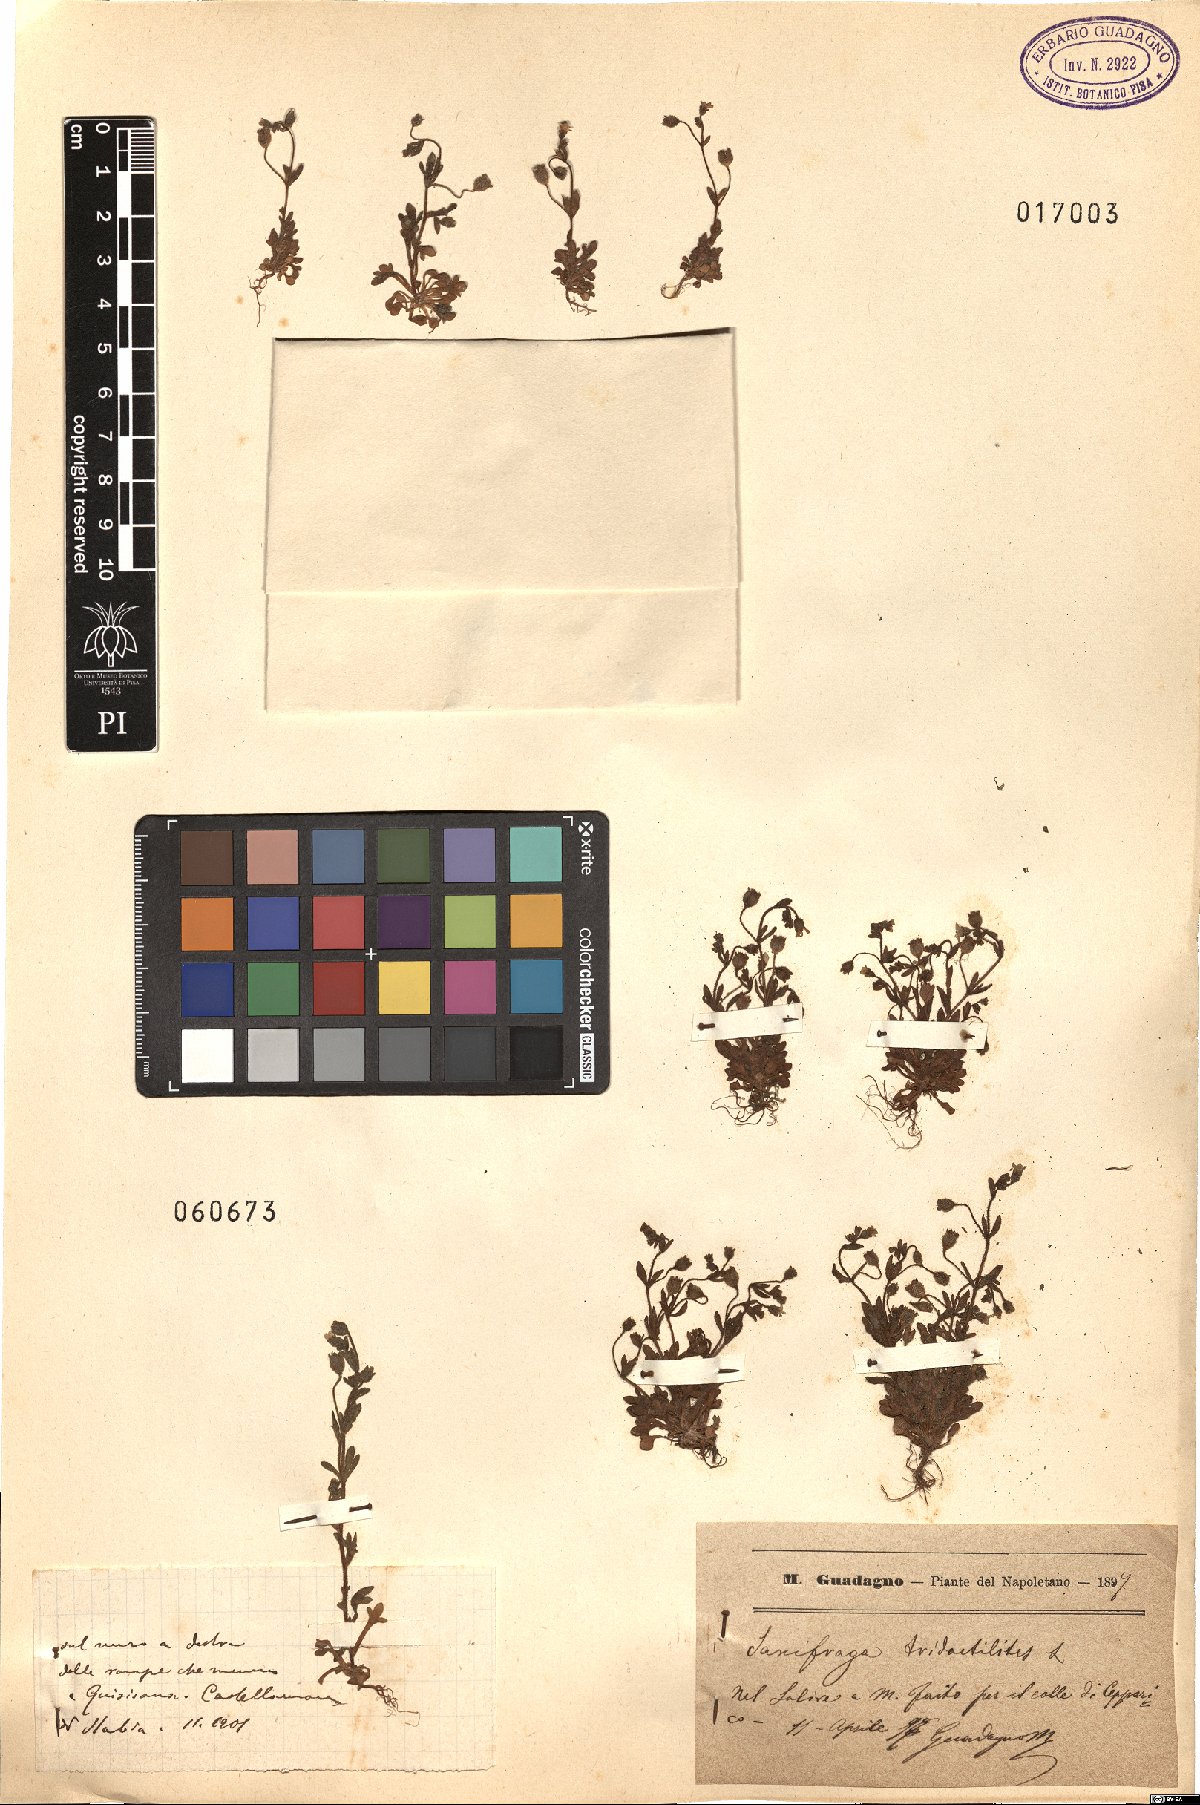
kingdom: Plantae
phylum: Tracheophyta
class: Magnoliopsida
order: Saxifragales
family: Saxifragaceae
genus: Saxifraga
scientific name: Saxifraga tridactylites
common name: Rue-leaved saxifrage
